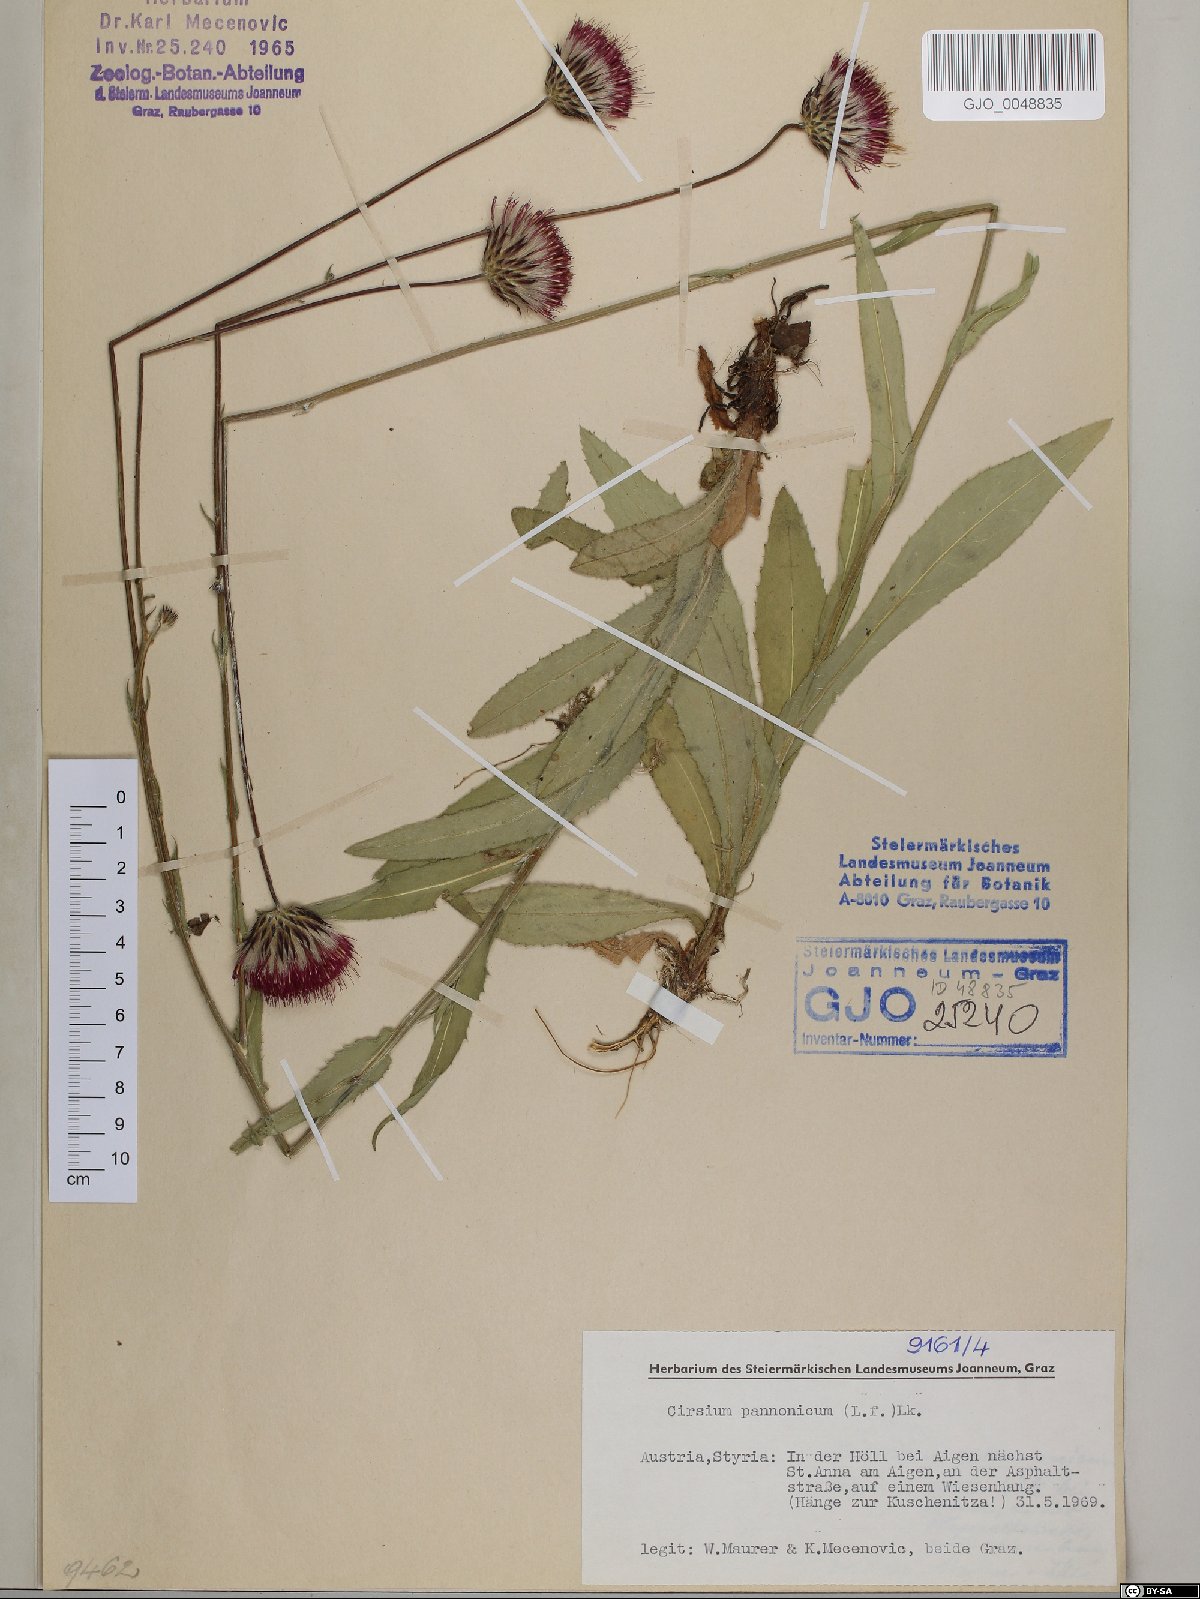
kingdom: Plantae
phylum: Tracheophyta
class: Magnoliopsida
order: Asterales
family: Asteraceae
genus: Cirsium
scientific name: Cirsium pannonicum
